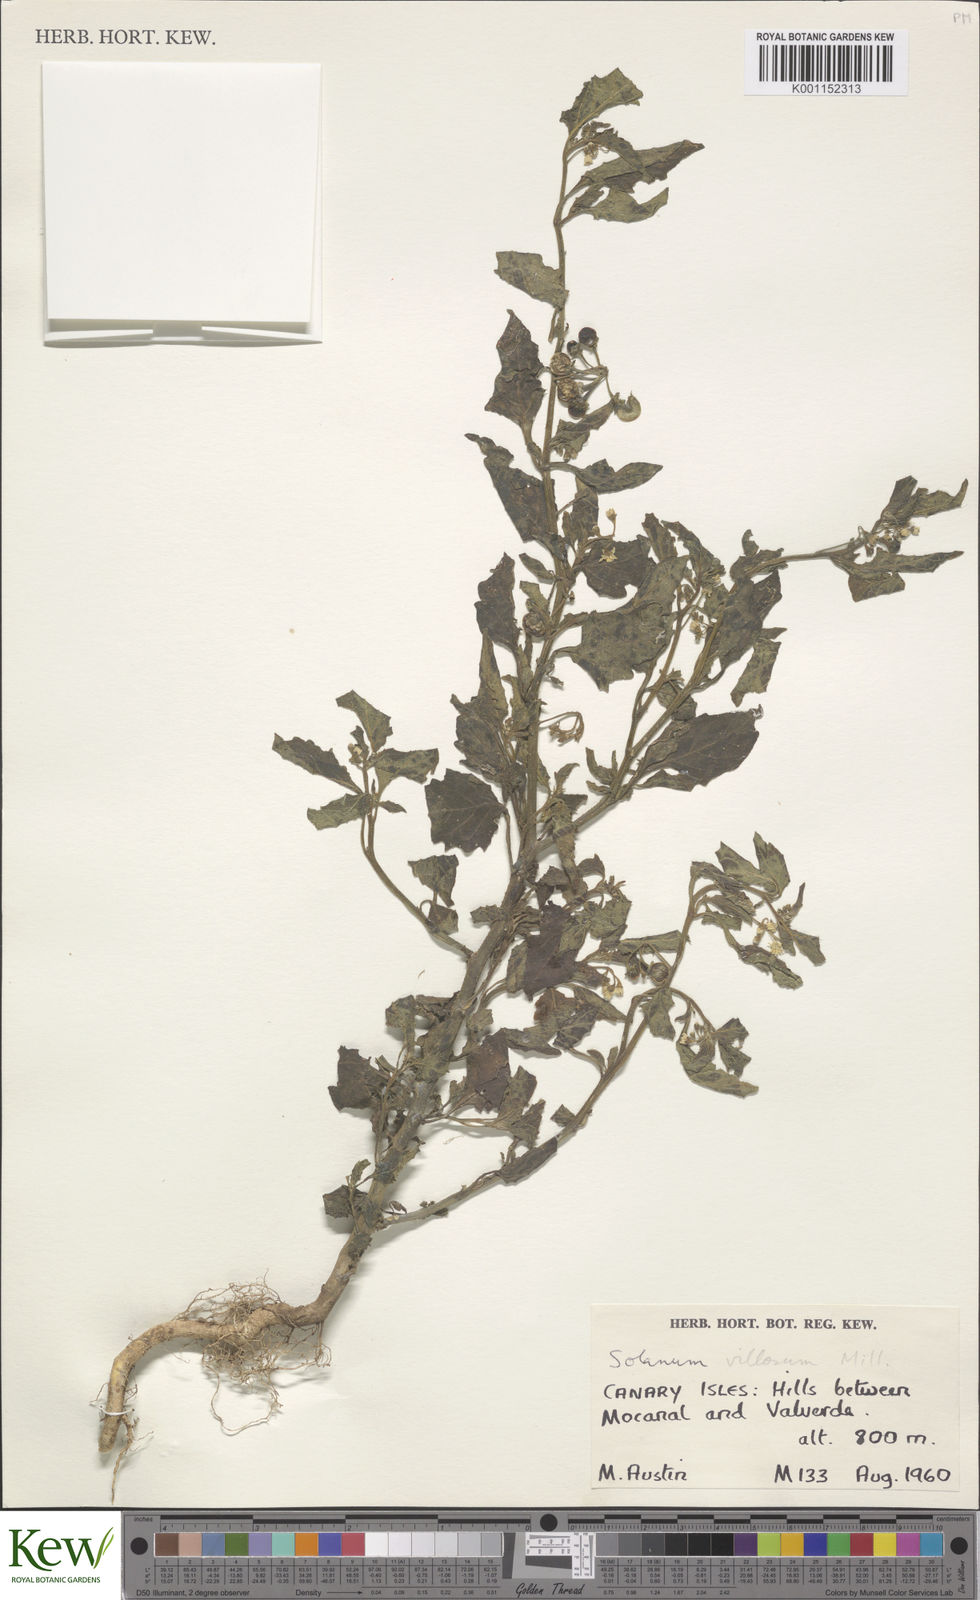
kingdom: Plantae
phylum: Tracheophyta
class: Magnoliopsida
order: Solanales
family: Solanaceae
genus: Solanum
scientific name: Solanum villosum
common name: Red nightshade
